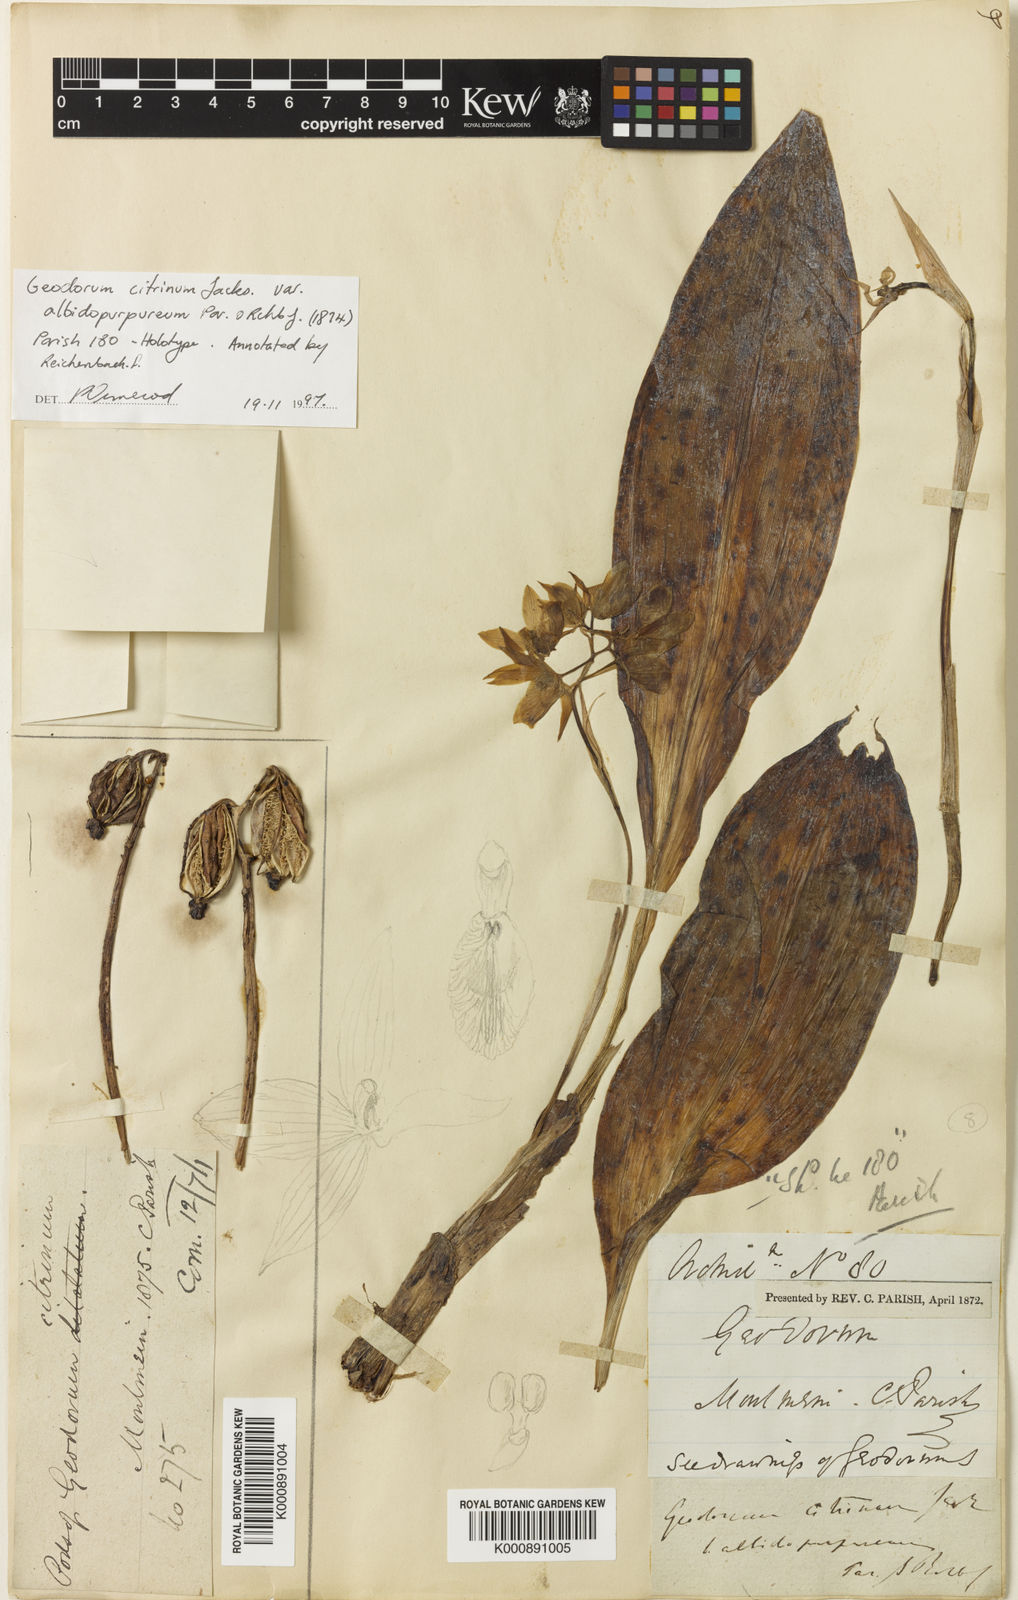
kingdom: Plantae
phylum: Tracheophyta
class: Liliopsida
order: Asparagales
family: Orchidaceae
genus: Geodorum
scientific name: Geodorum
